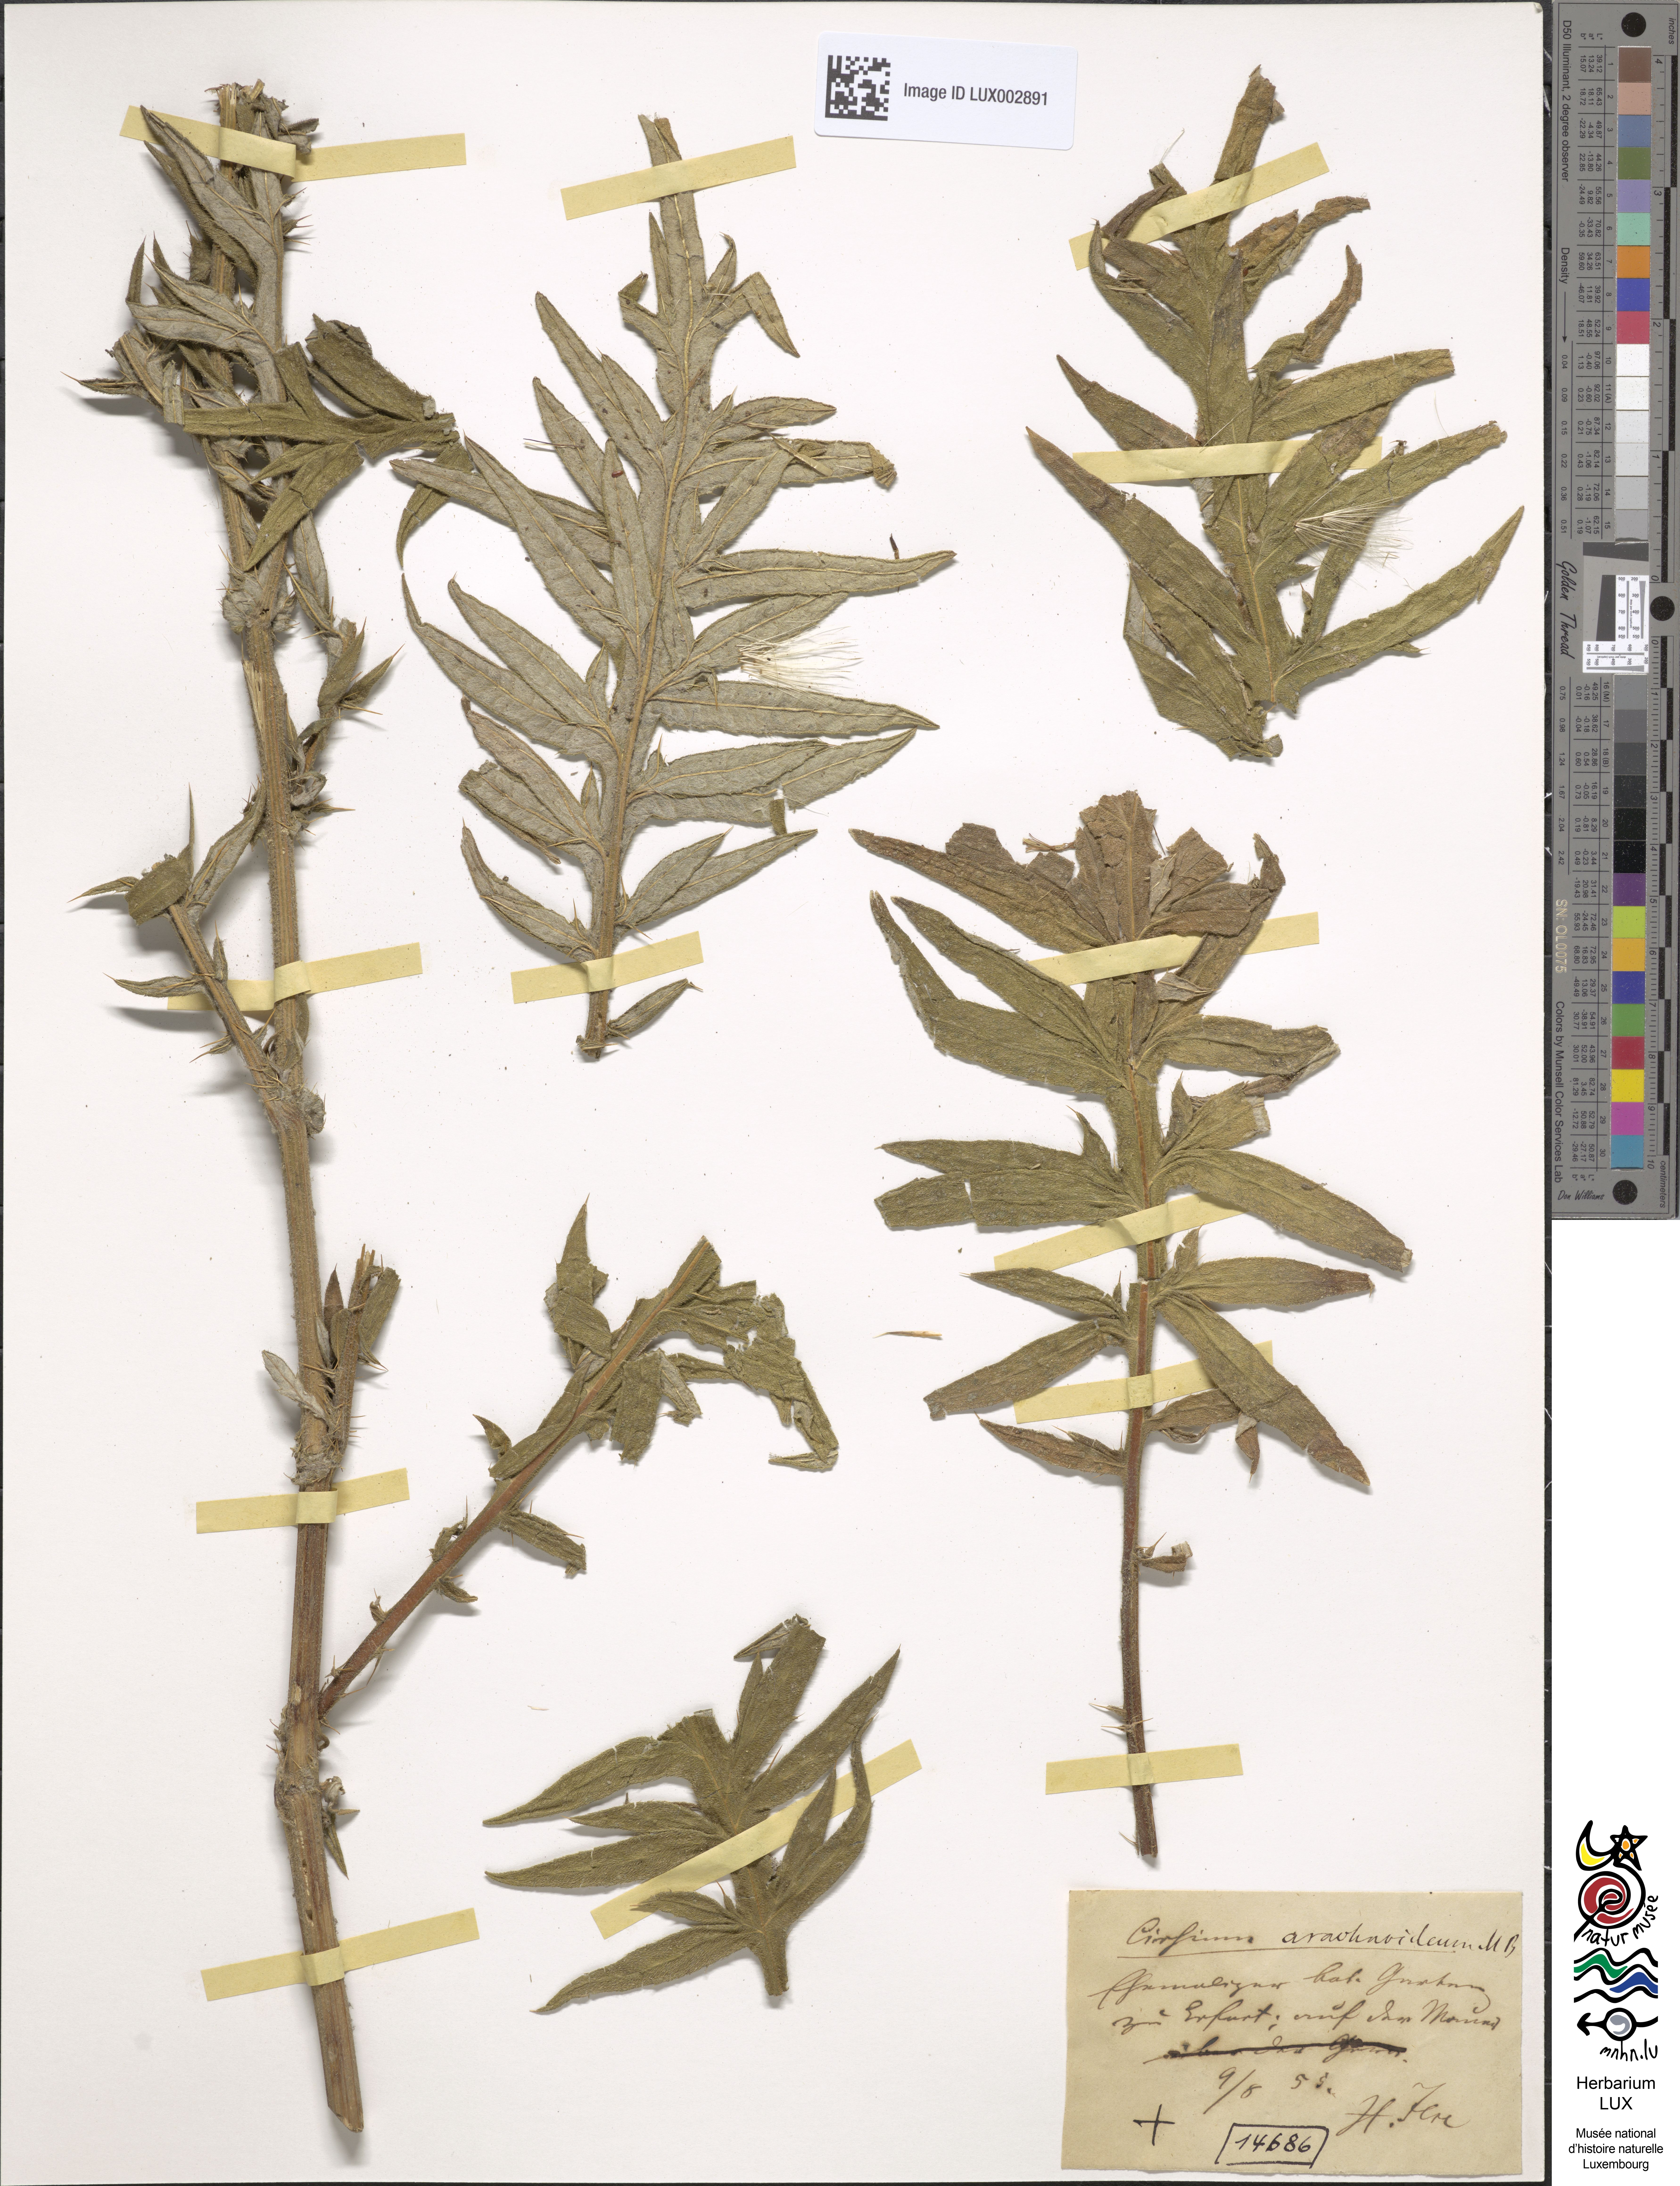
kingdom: Plantae
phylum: Tracheophyta
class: Magnoliopsida
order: Asterales
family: Asteraceae
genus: Lophiolepis
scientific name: Lophiolepis arachnoidea
